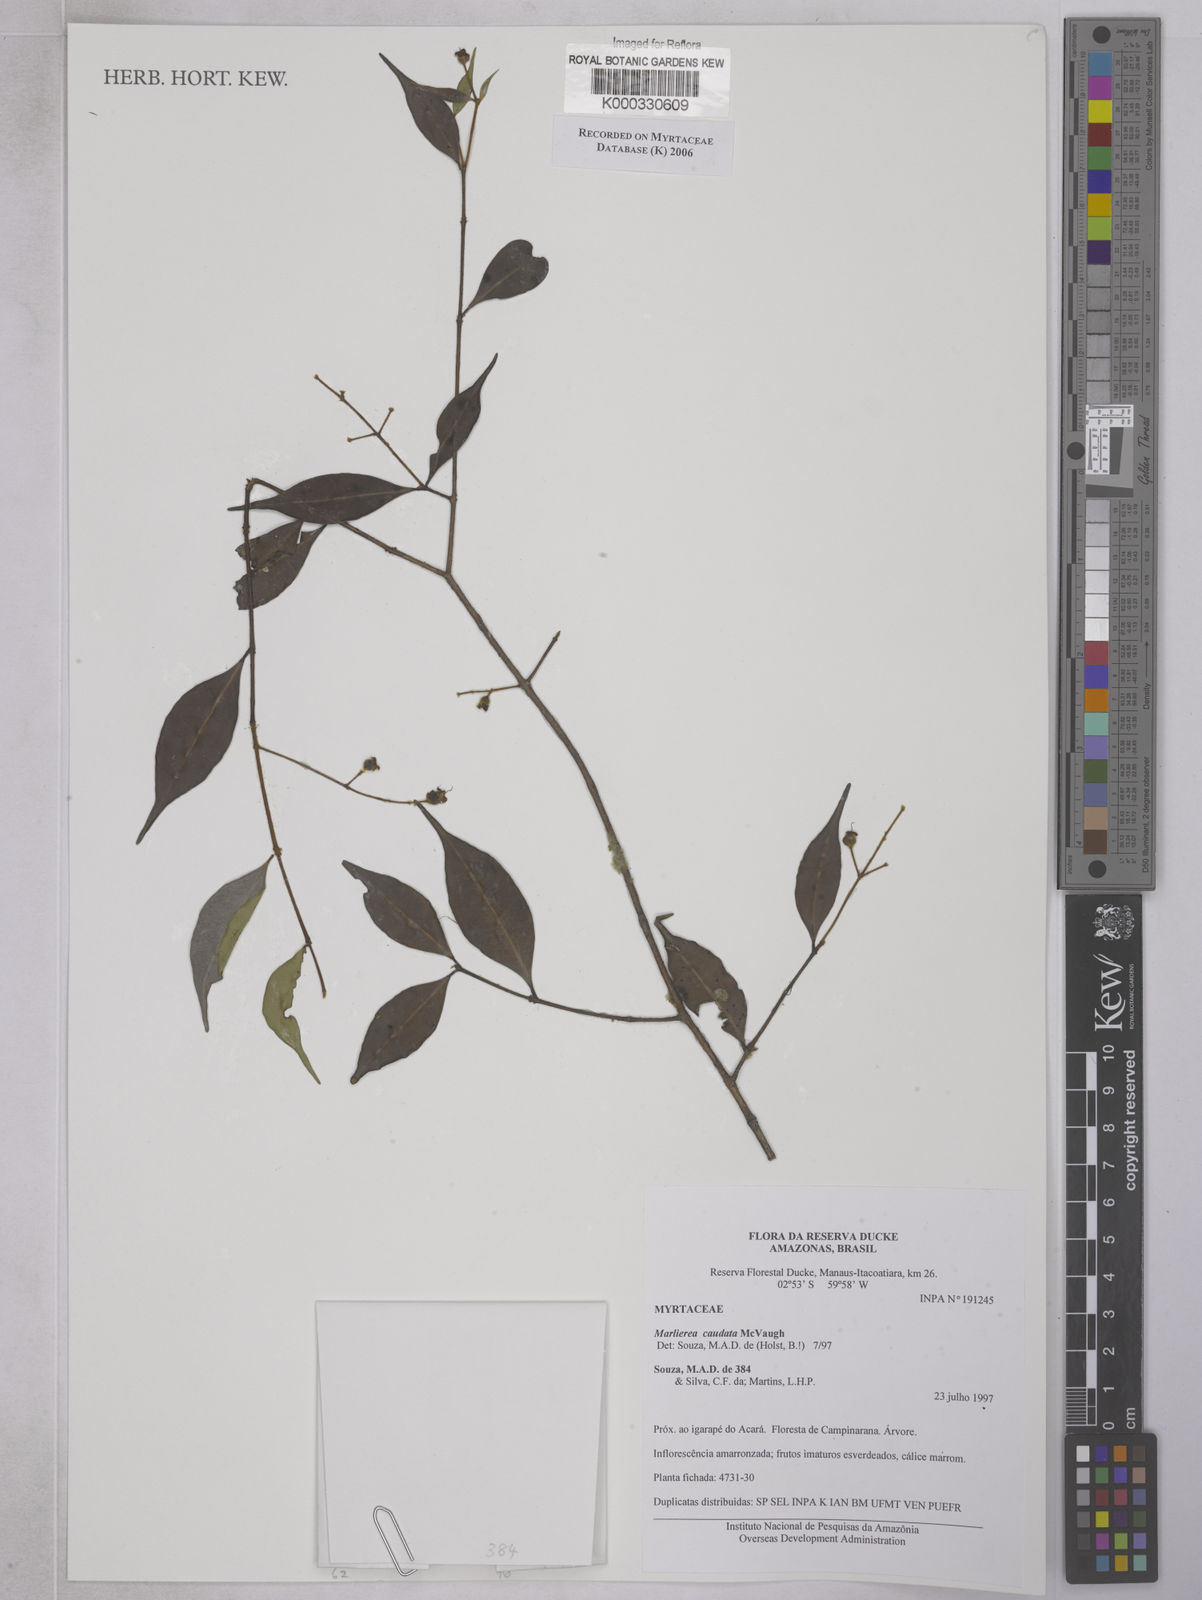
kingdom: Plantae
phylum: Tracheophyta
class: Magnoliopsida
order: Myrtales
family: Myrtaceae
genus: Myrcia
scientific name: Myrcia caudata
